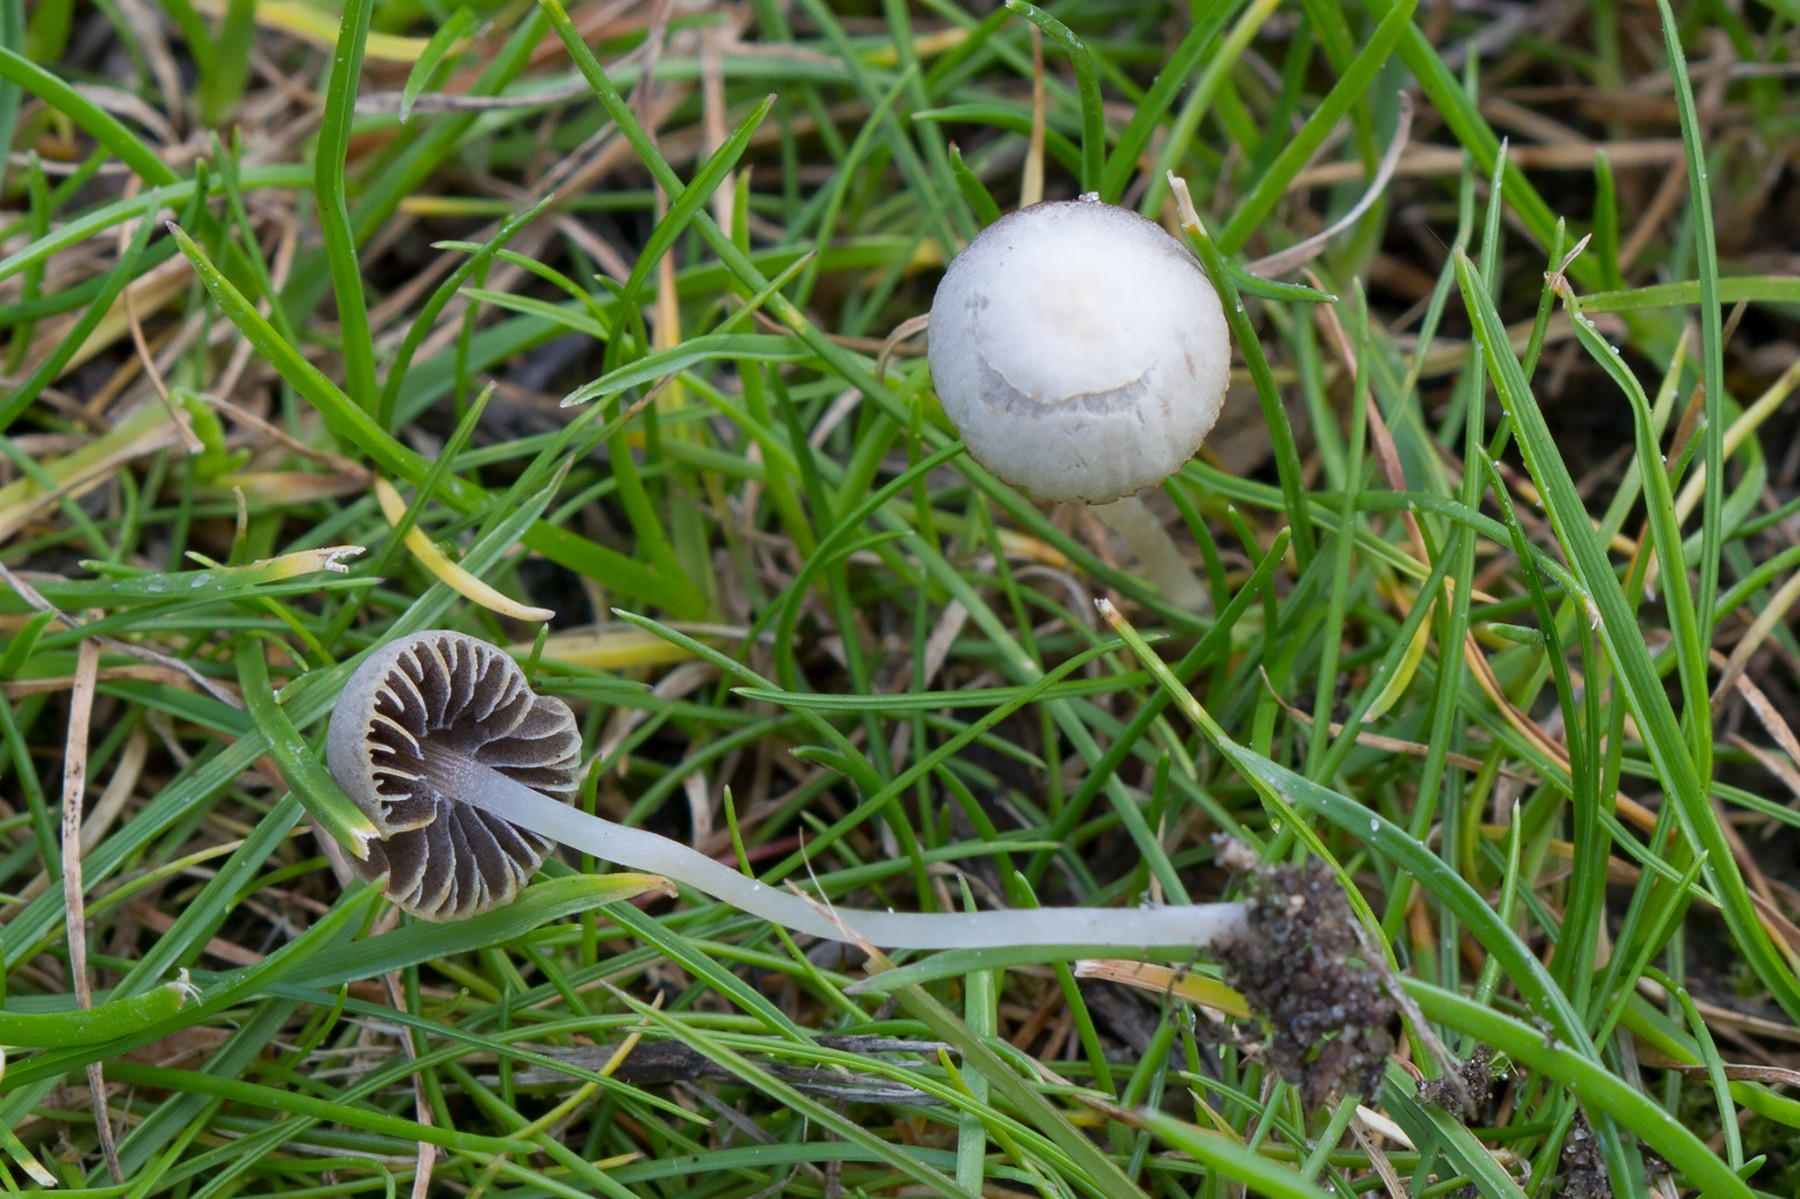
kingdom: Fungi
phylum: Basidiomycota
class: Agaricomycetes
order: Agaricales
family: Psathyrellaceae
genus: Psathyrella
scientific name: Psathyrella potteri
